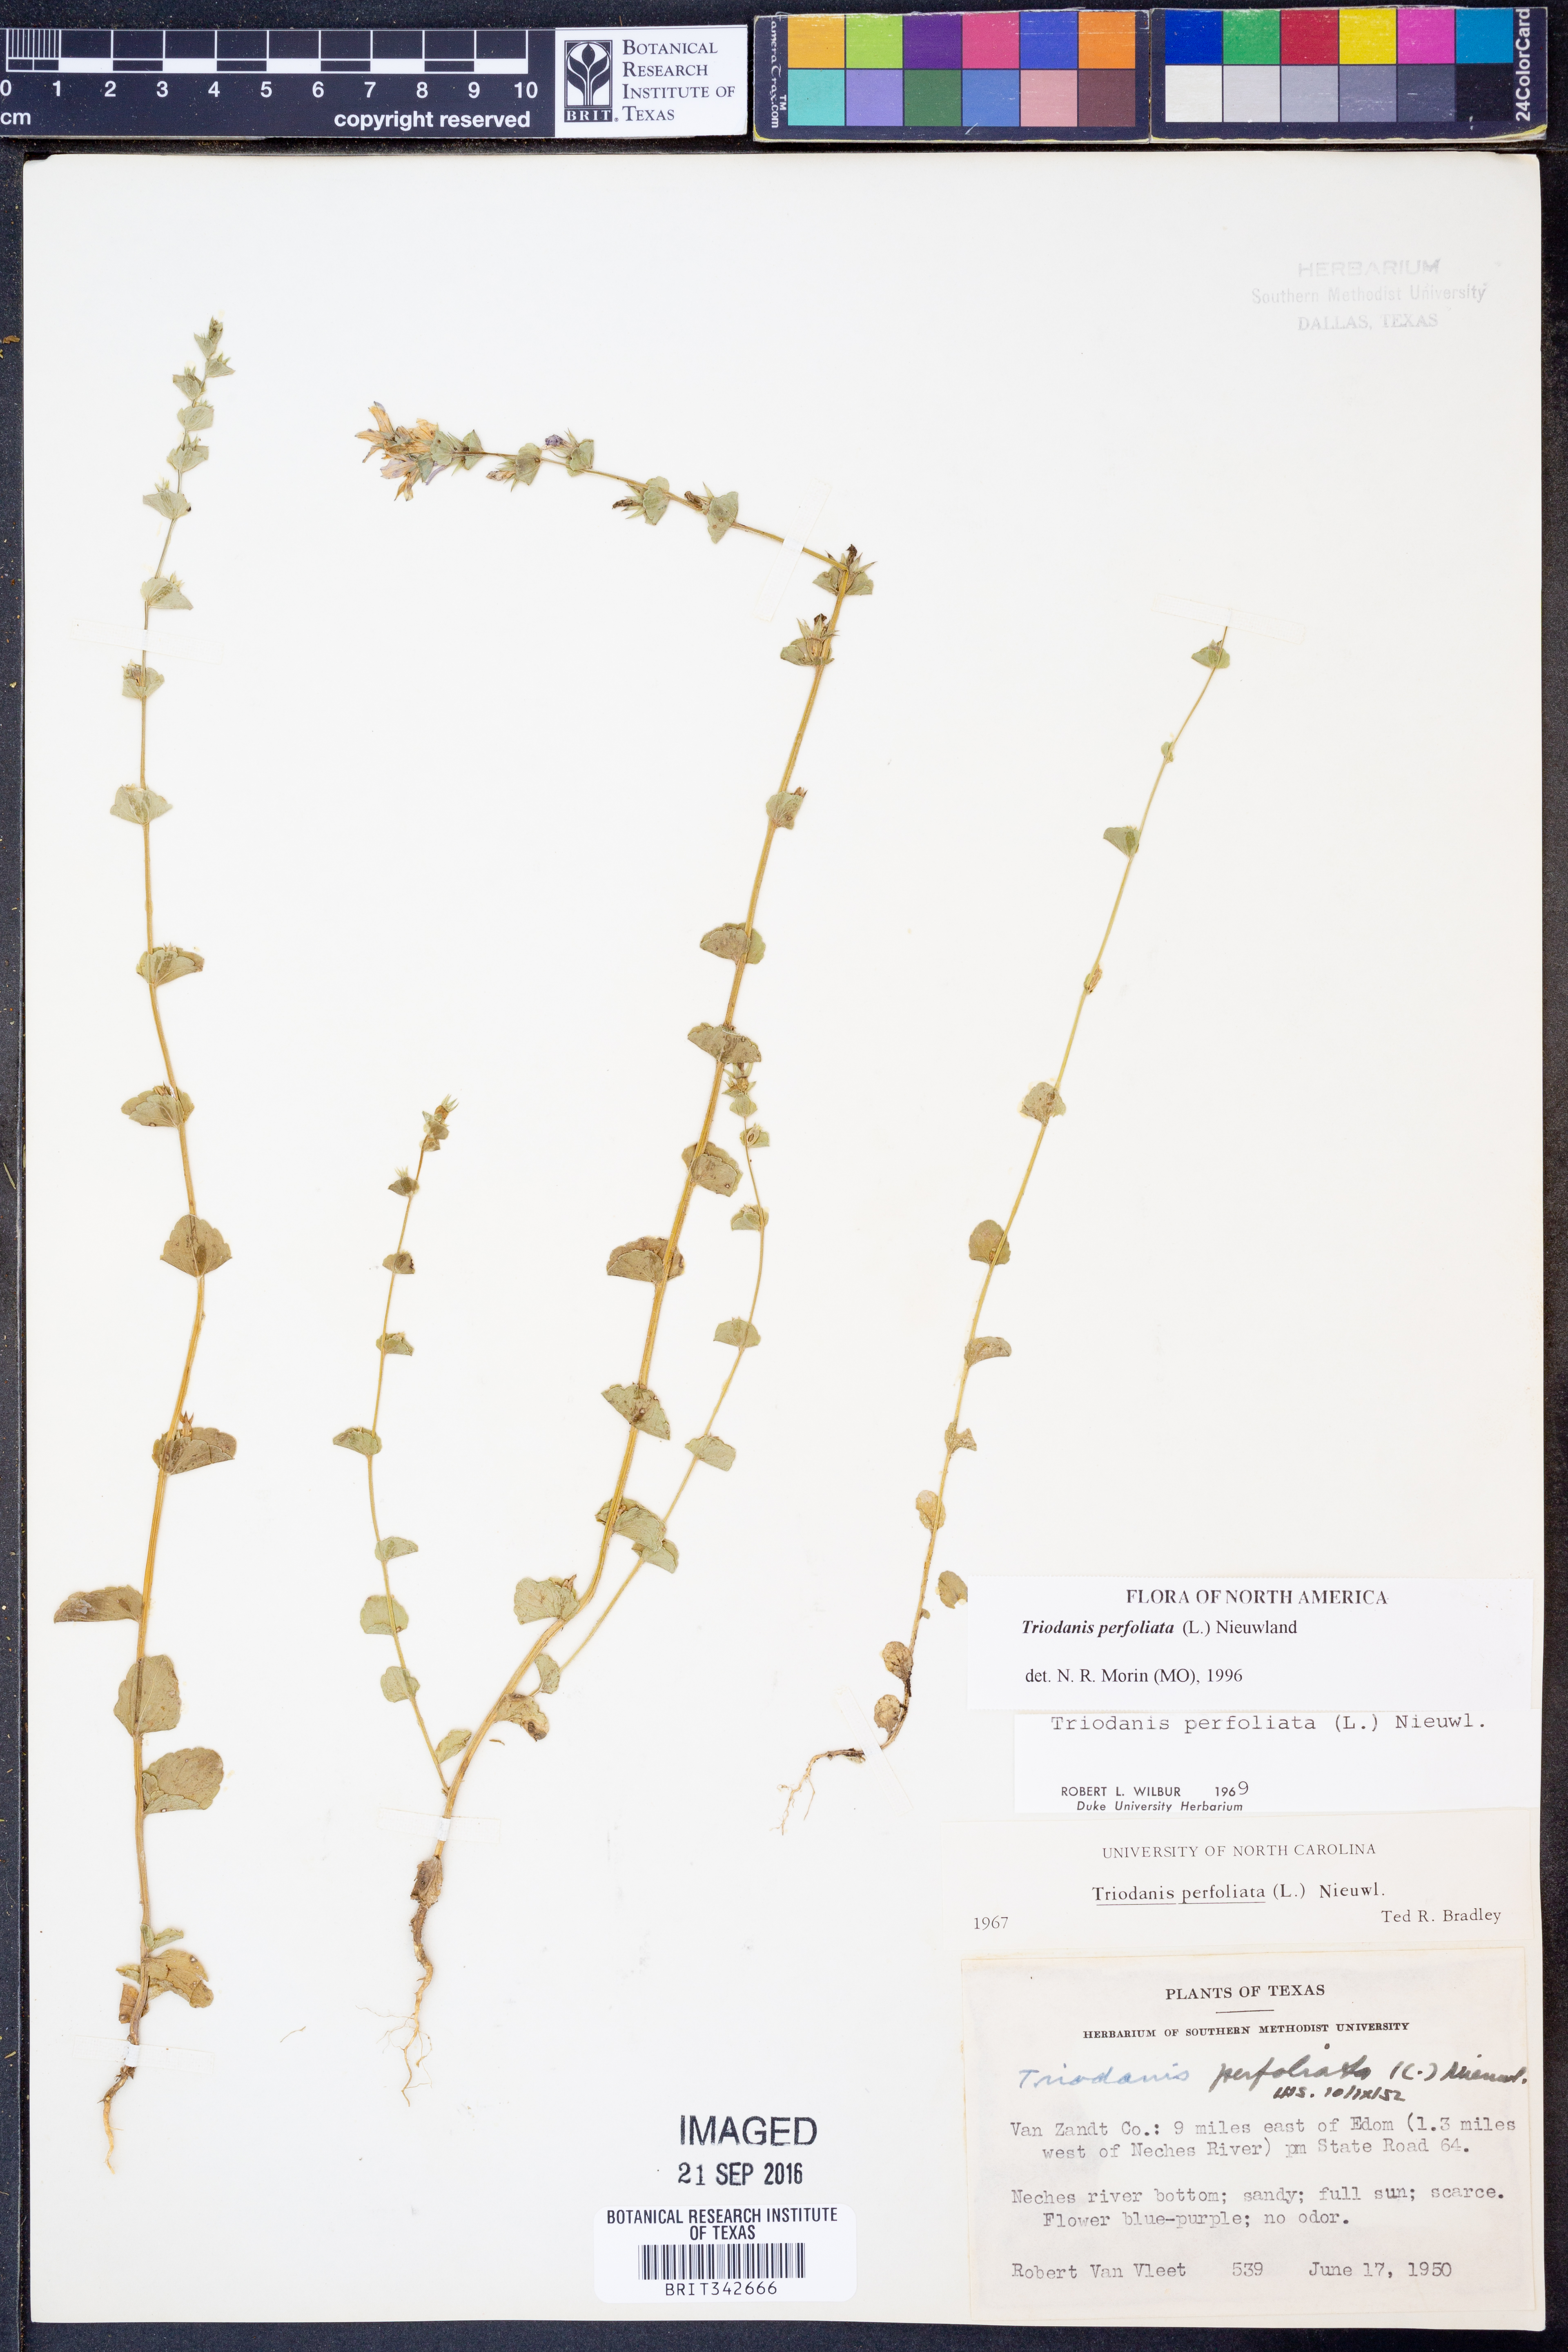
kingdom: Plantae
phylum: Tracheophyta
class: Magnoliopsida
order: Asterales
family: Campanulaceae
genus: Triodanis
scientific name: Triodanis perfoliata
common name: Clasping venus' looking-glass
